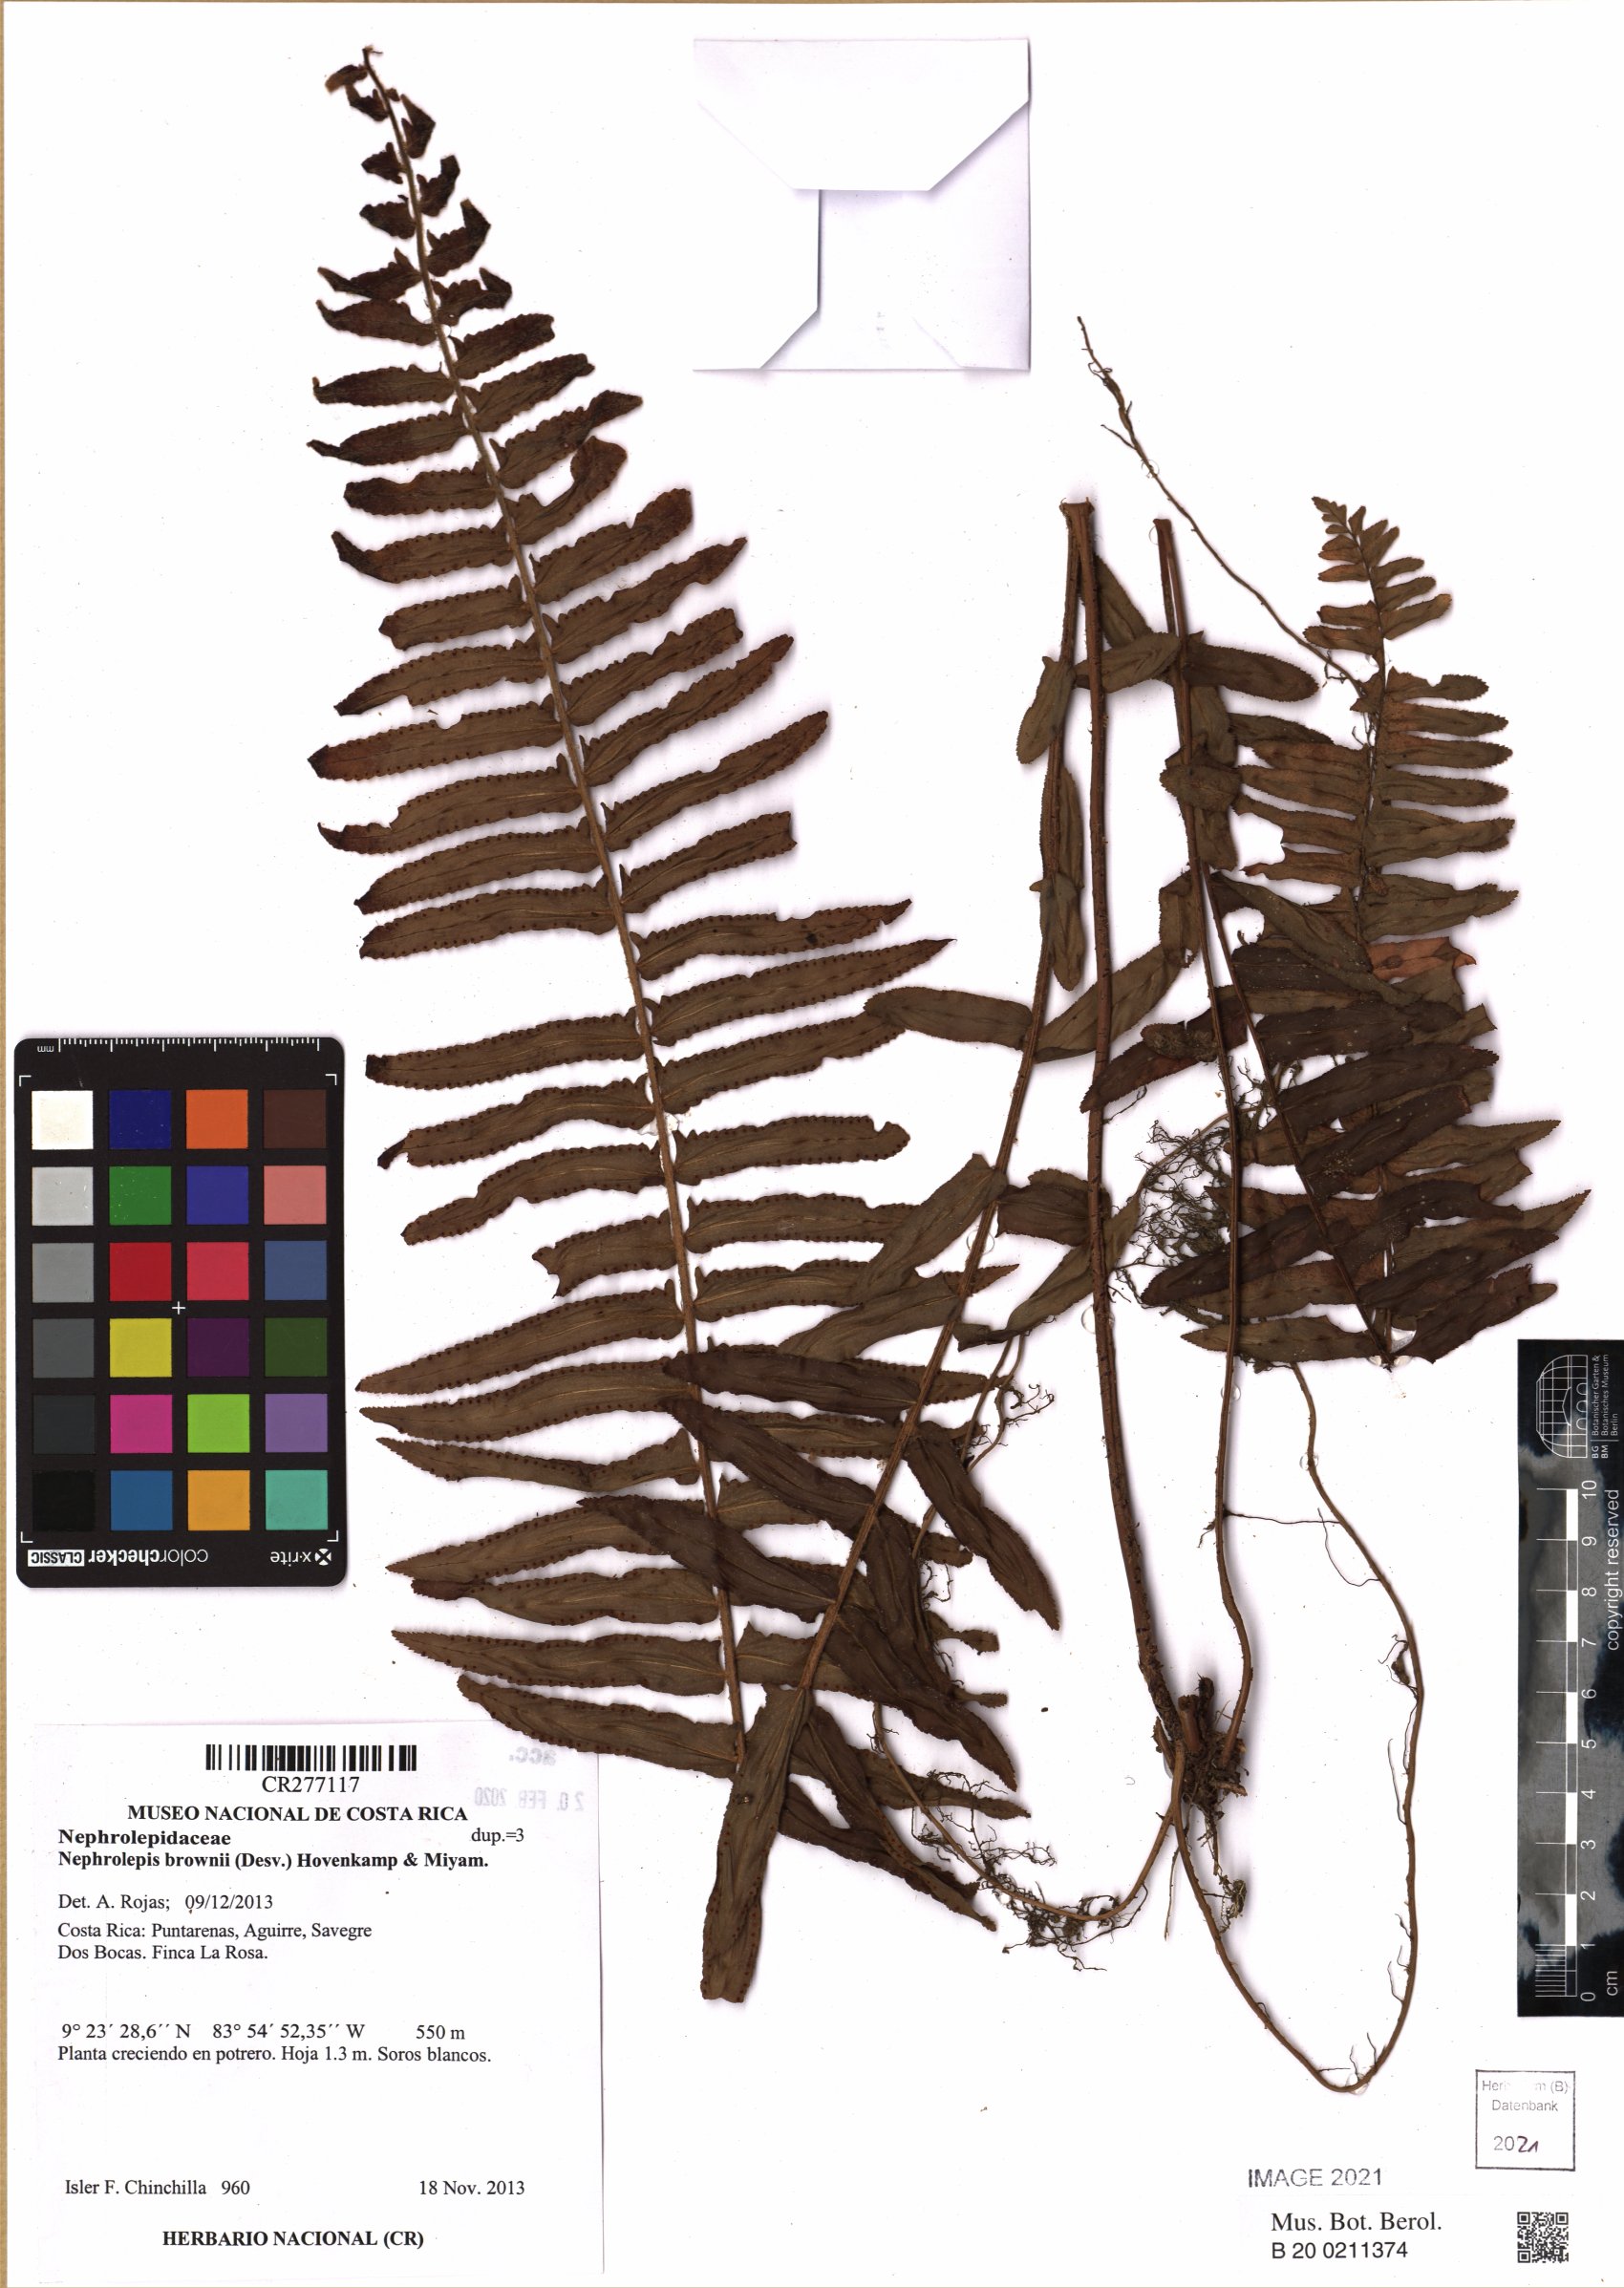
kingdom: Plantae
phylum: Tracheophyta
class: Polypodiopsida
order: Polypodiales
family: Nephrolepidaceae
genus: Nephrolepis
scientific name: Nephrolepis brownii
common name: Asian swordfern
